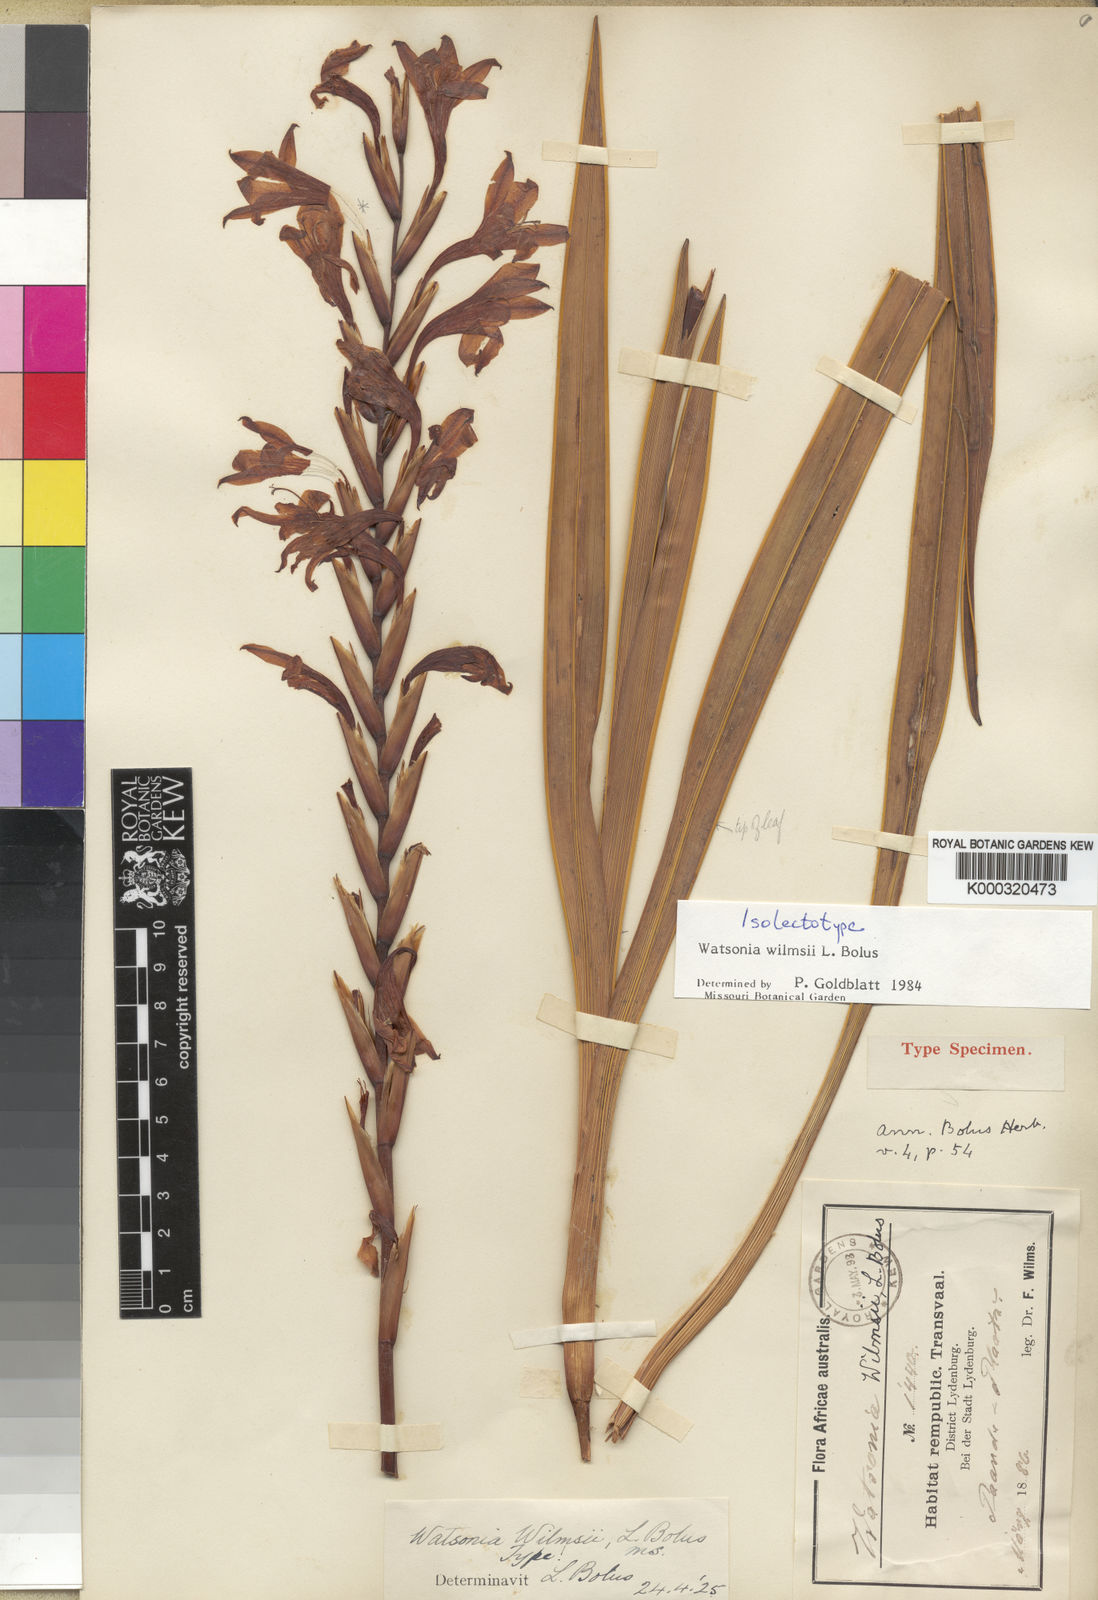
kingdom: Plantae
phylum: Tracheophyta
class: Liliopsida
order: Asparagales
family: Iridaceae
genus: Watsonia
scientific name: Watsonia wilmsii
